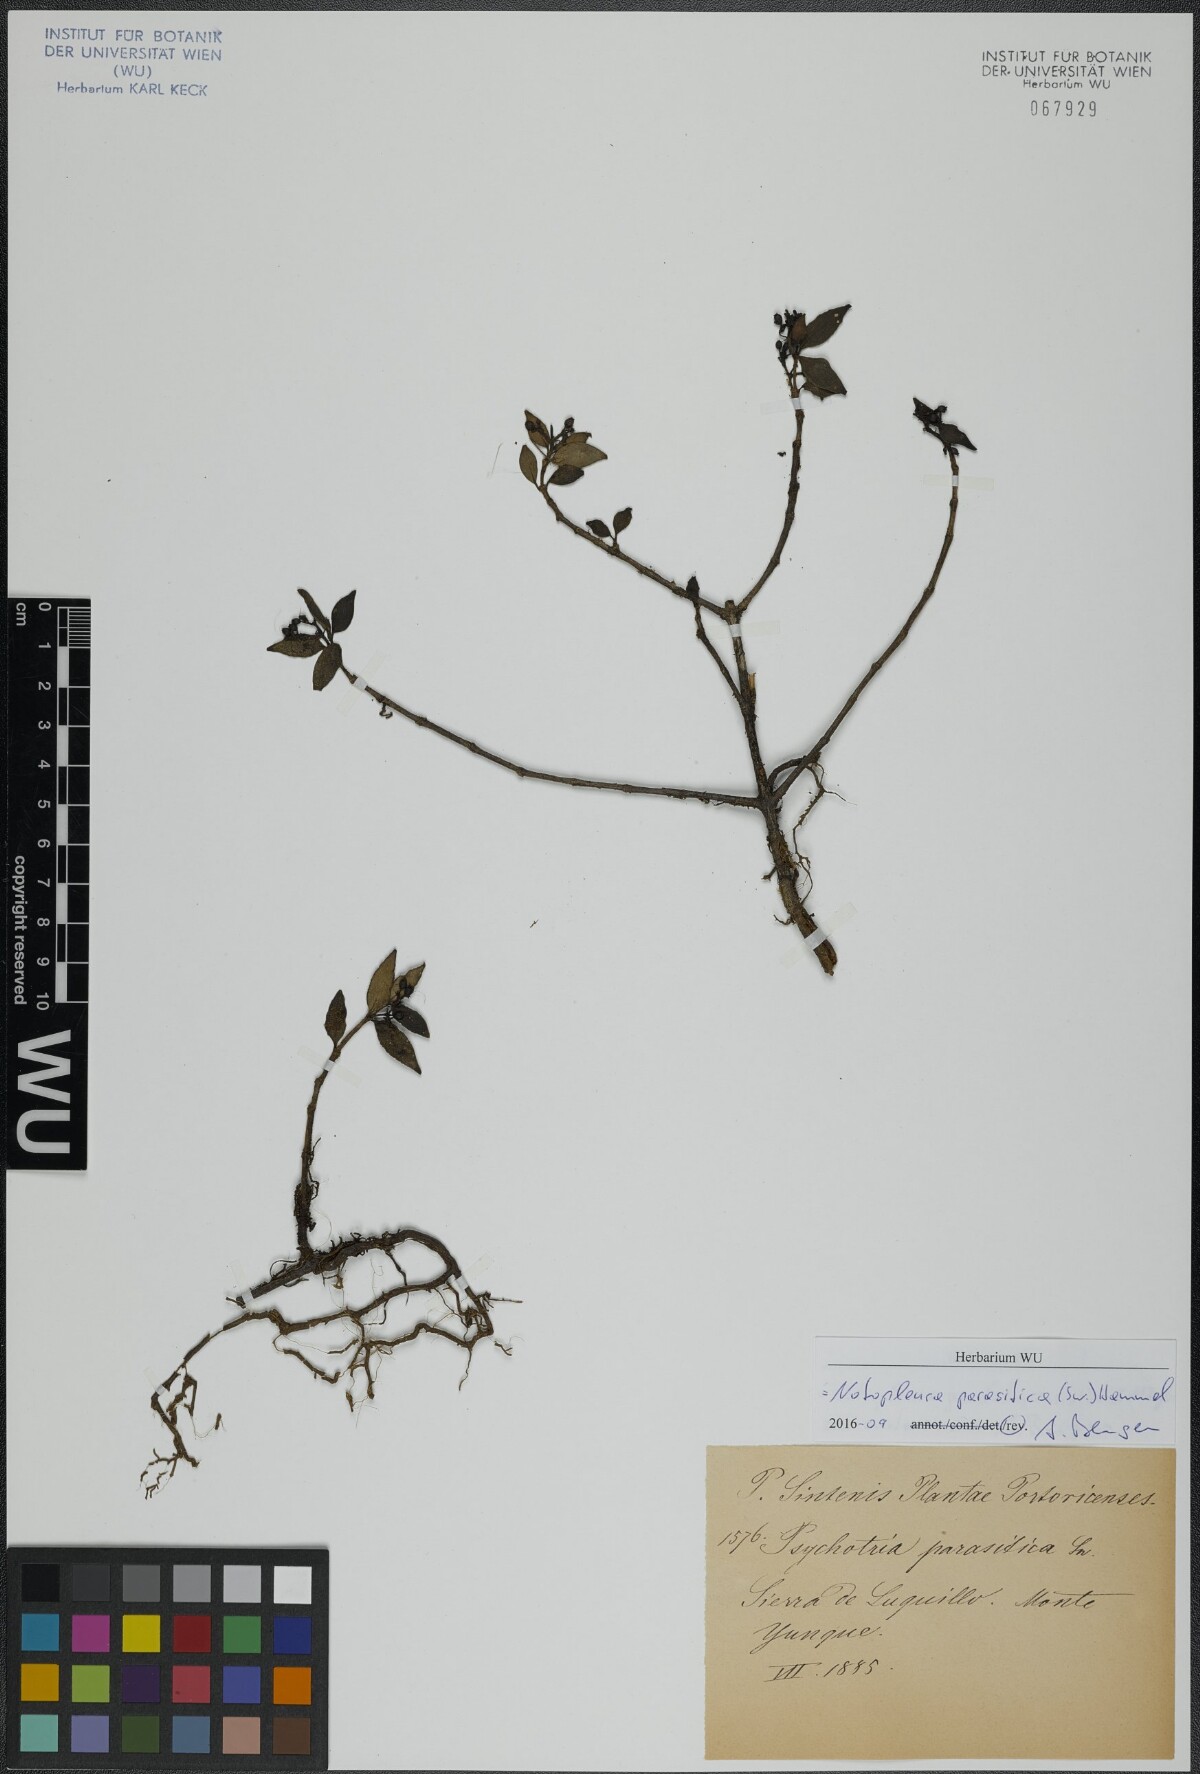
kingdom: Plantae
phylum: Tracheophyta
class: Magnoliopsida
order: Gentianales
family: Rubiaceae
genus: Notopleura
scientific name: Notopleura parasitica
